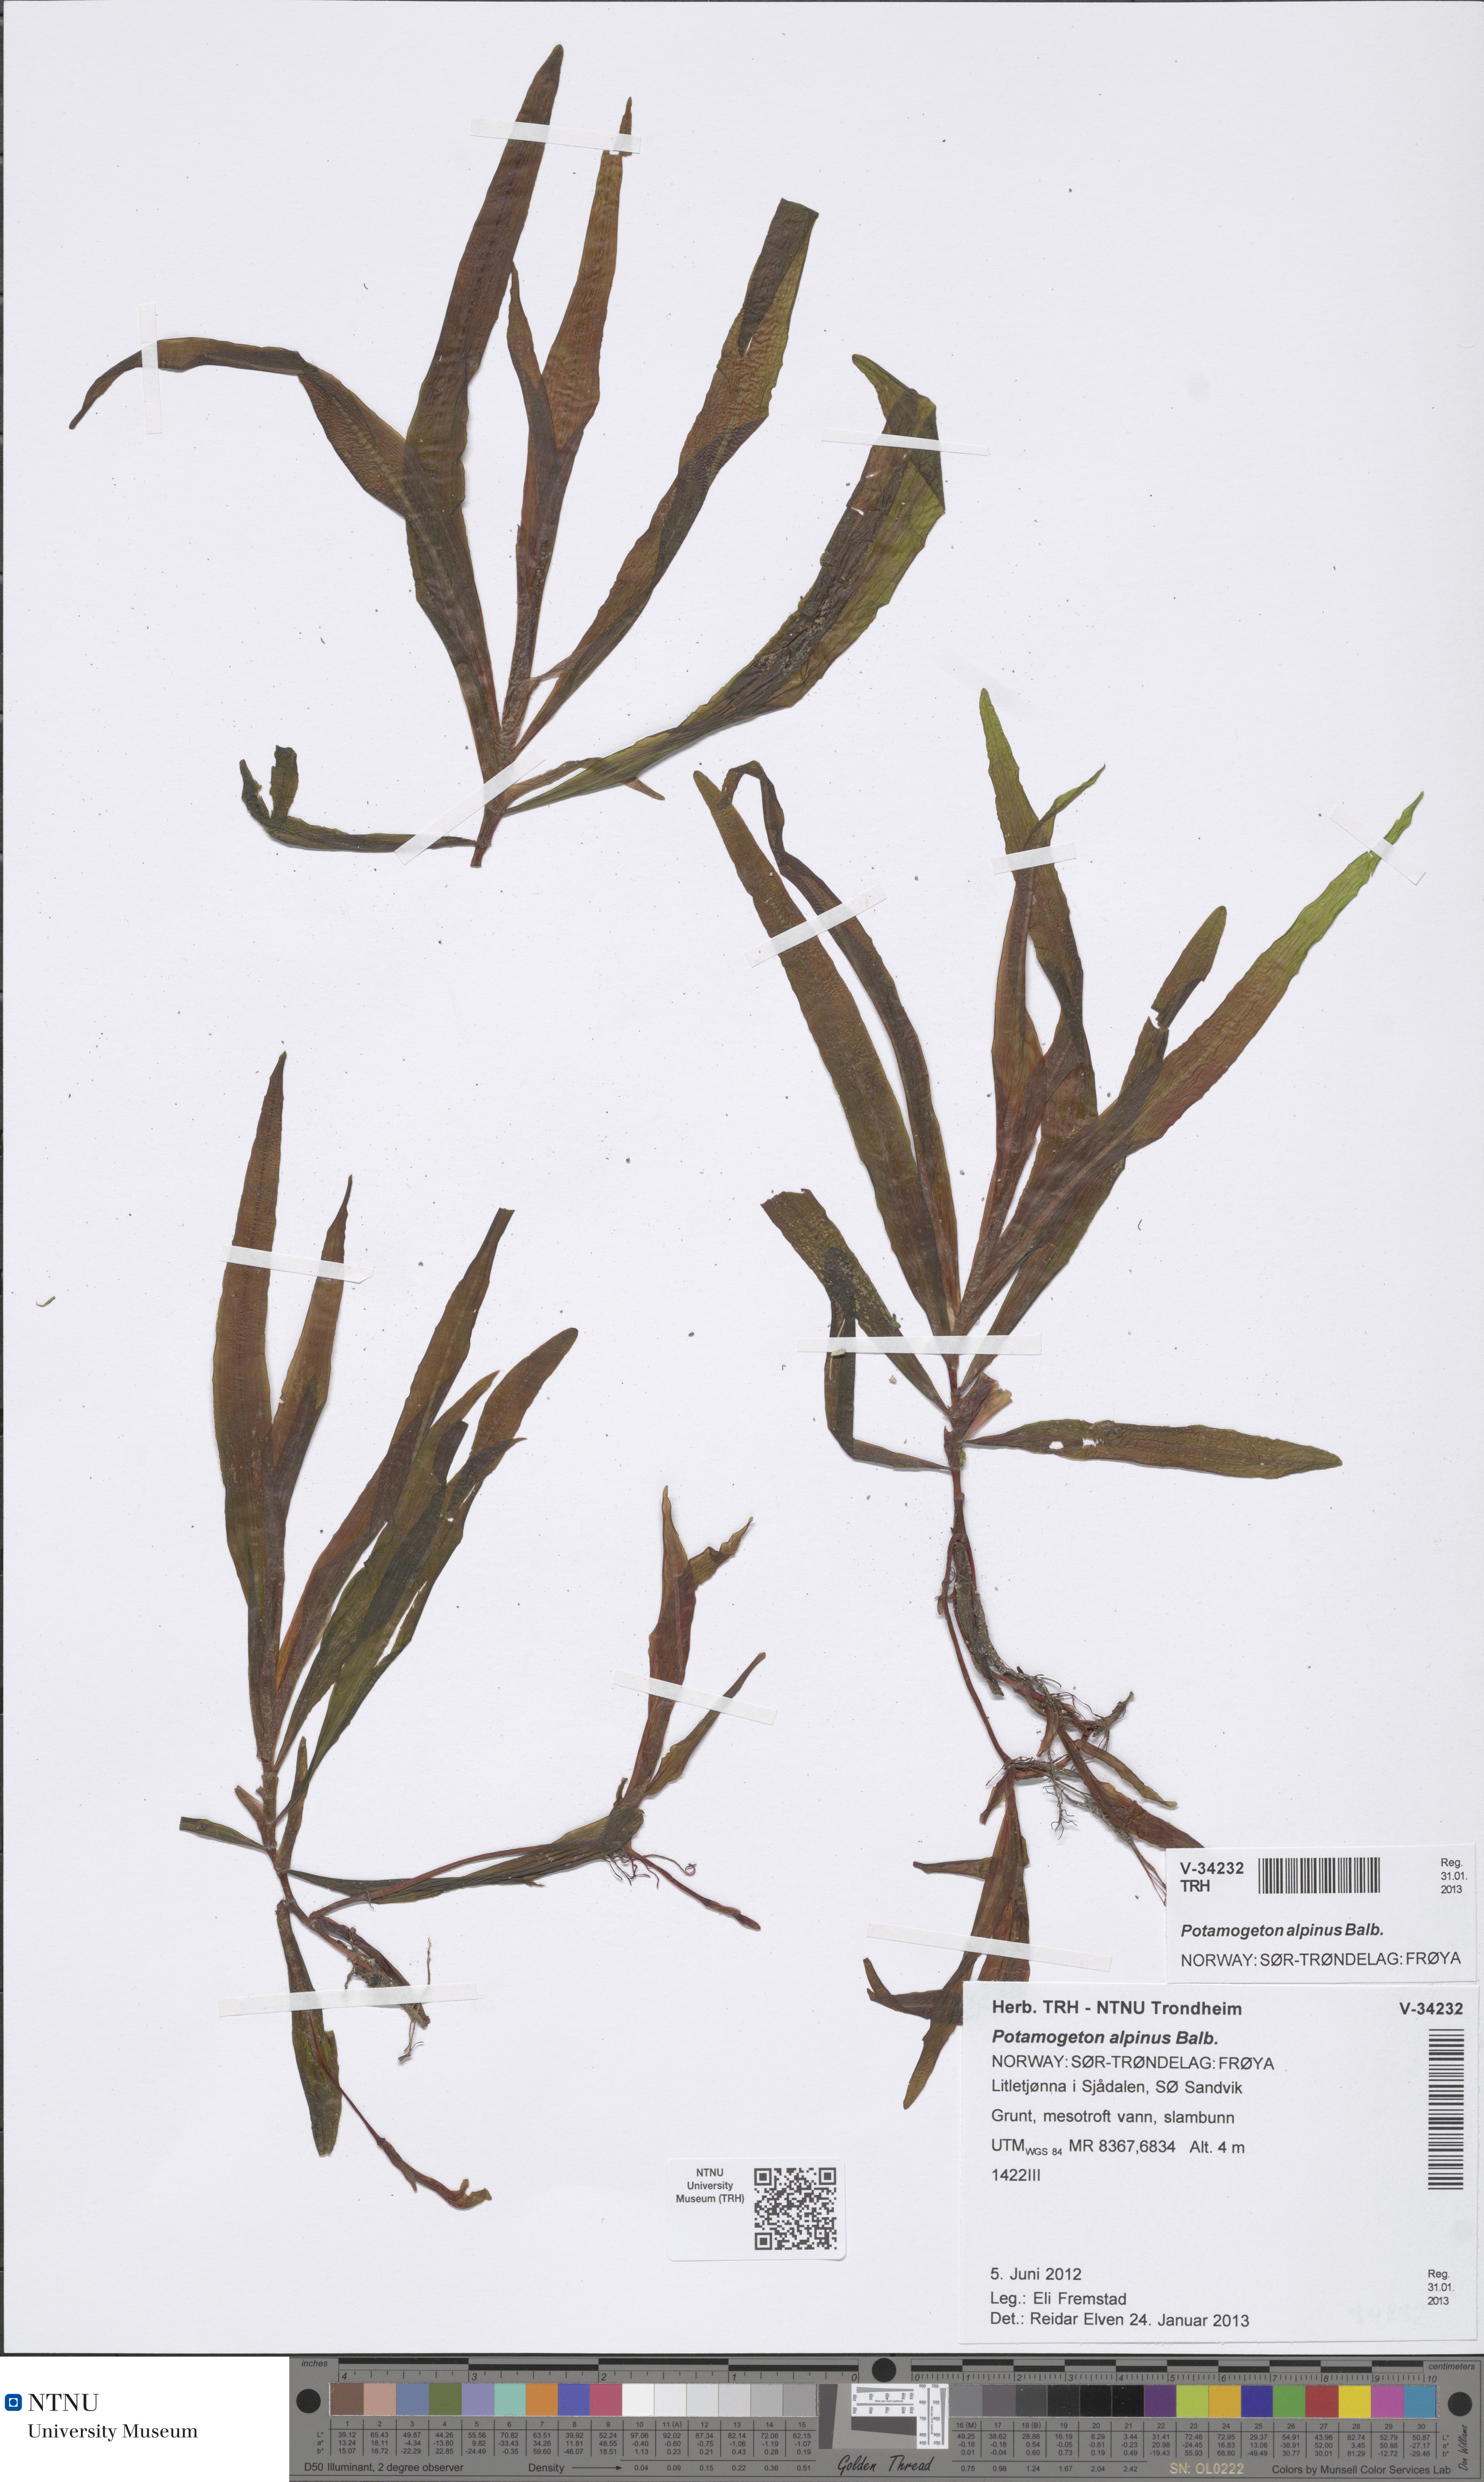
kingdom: Plantae
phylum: Tracheophyta
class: Liliopsida
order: Alismatales
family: Potamogetonaceae
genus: Potamogeton
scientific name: Potamogeton alpinus
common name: Red pondweed
